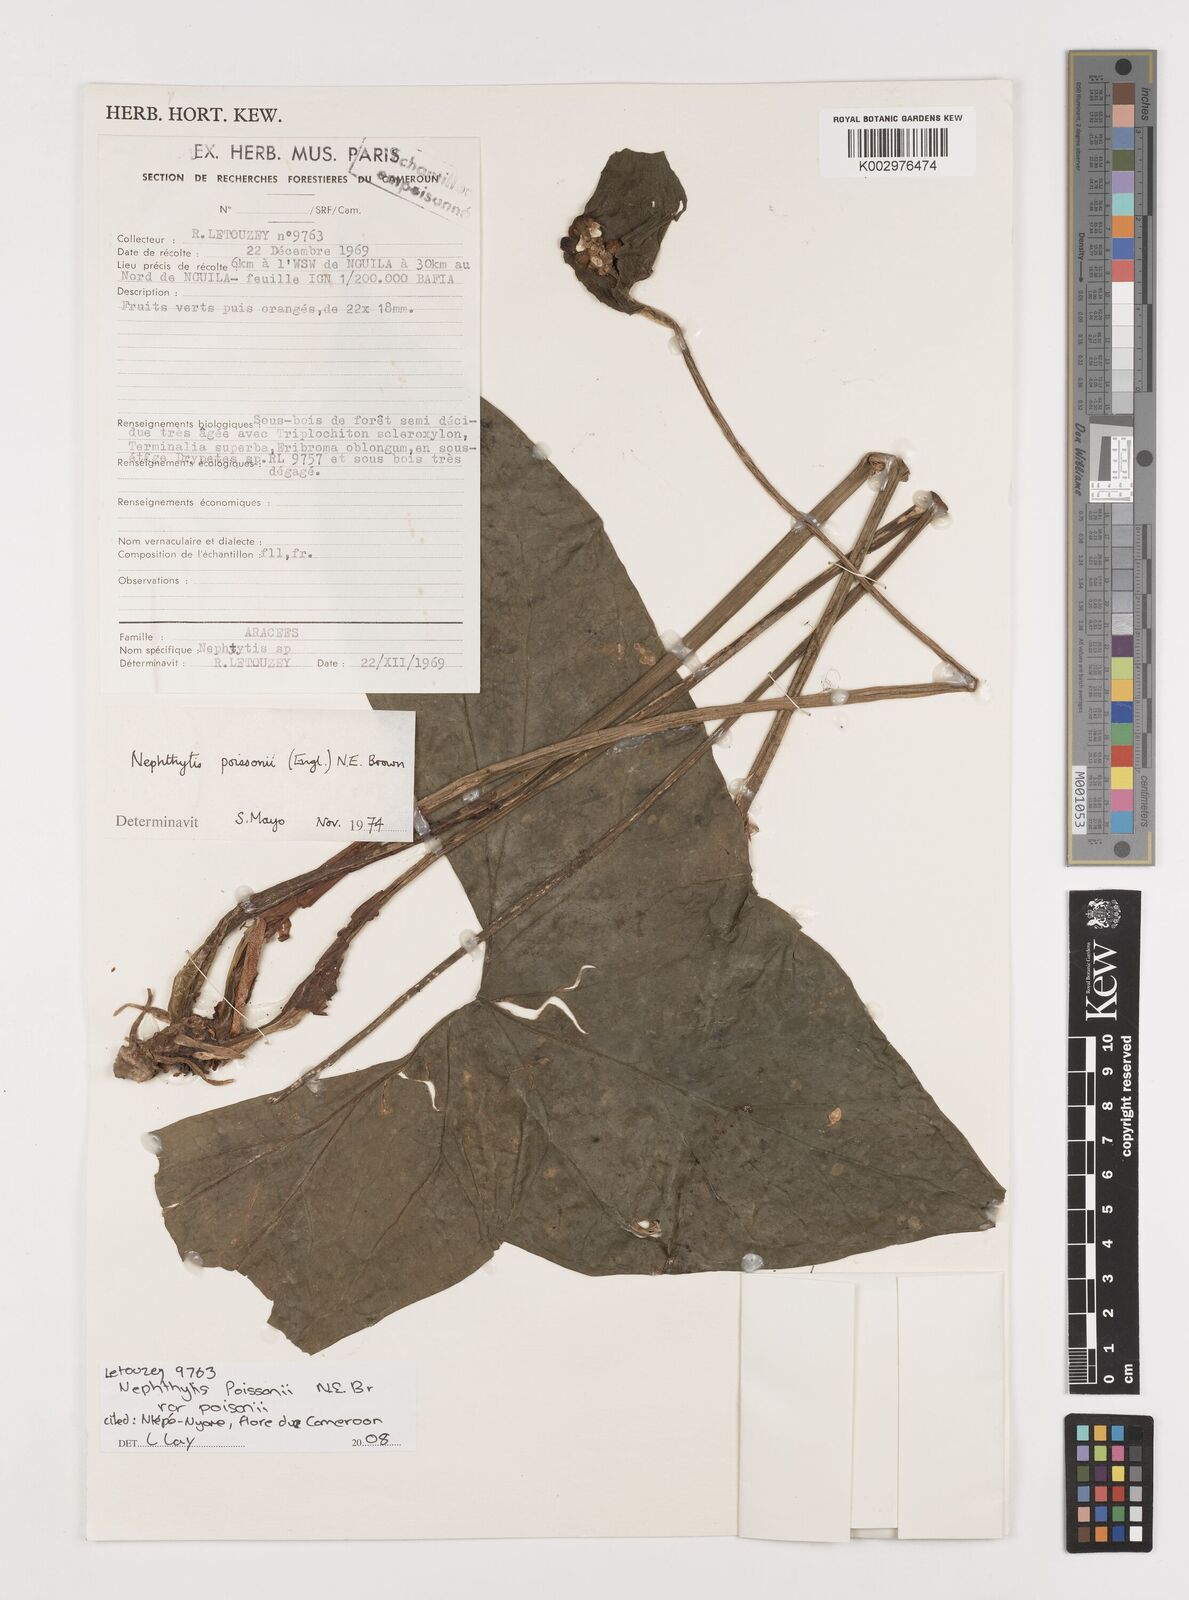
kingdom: Plantae
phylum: Tracheophyta
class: Liliopsida
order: Alismatales
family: Araceae
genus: Nephthytis
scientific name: Nephthytis poissonii
